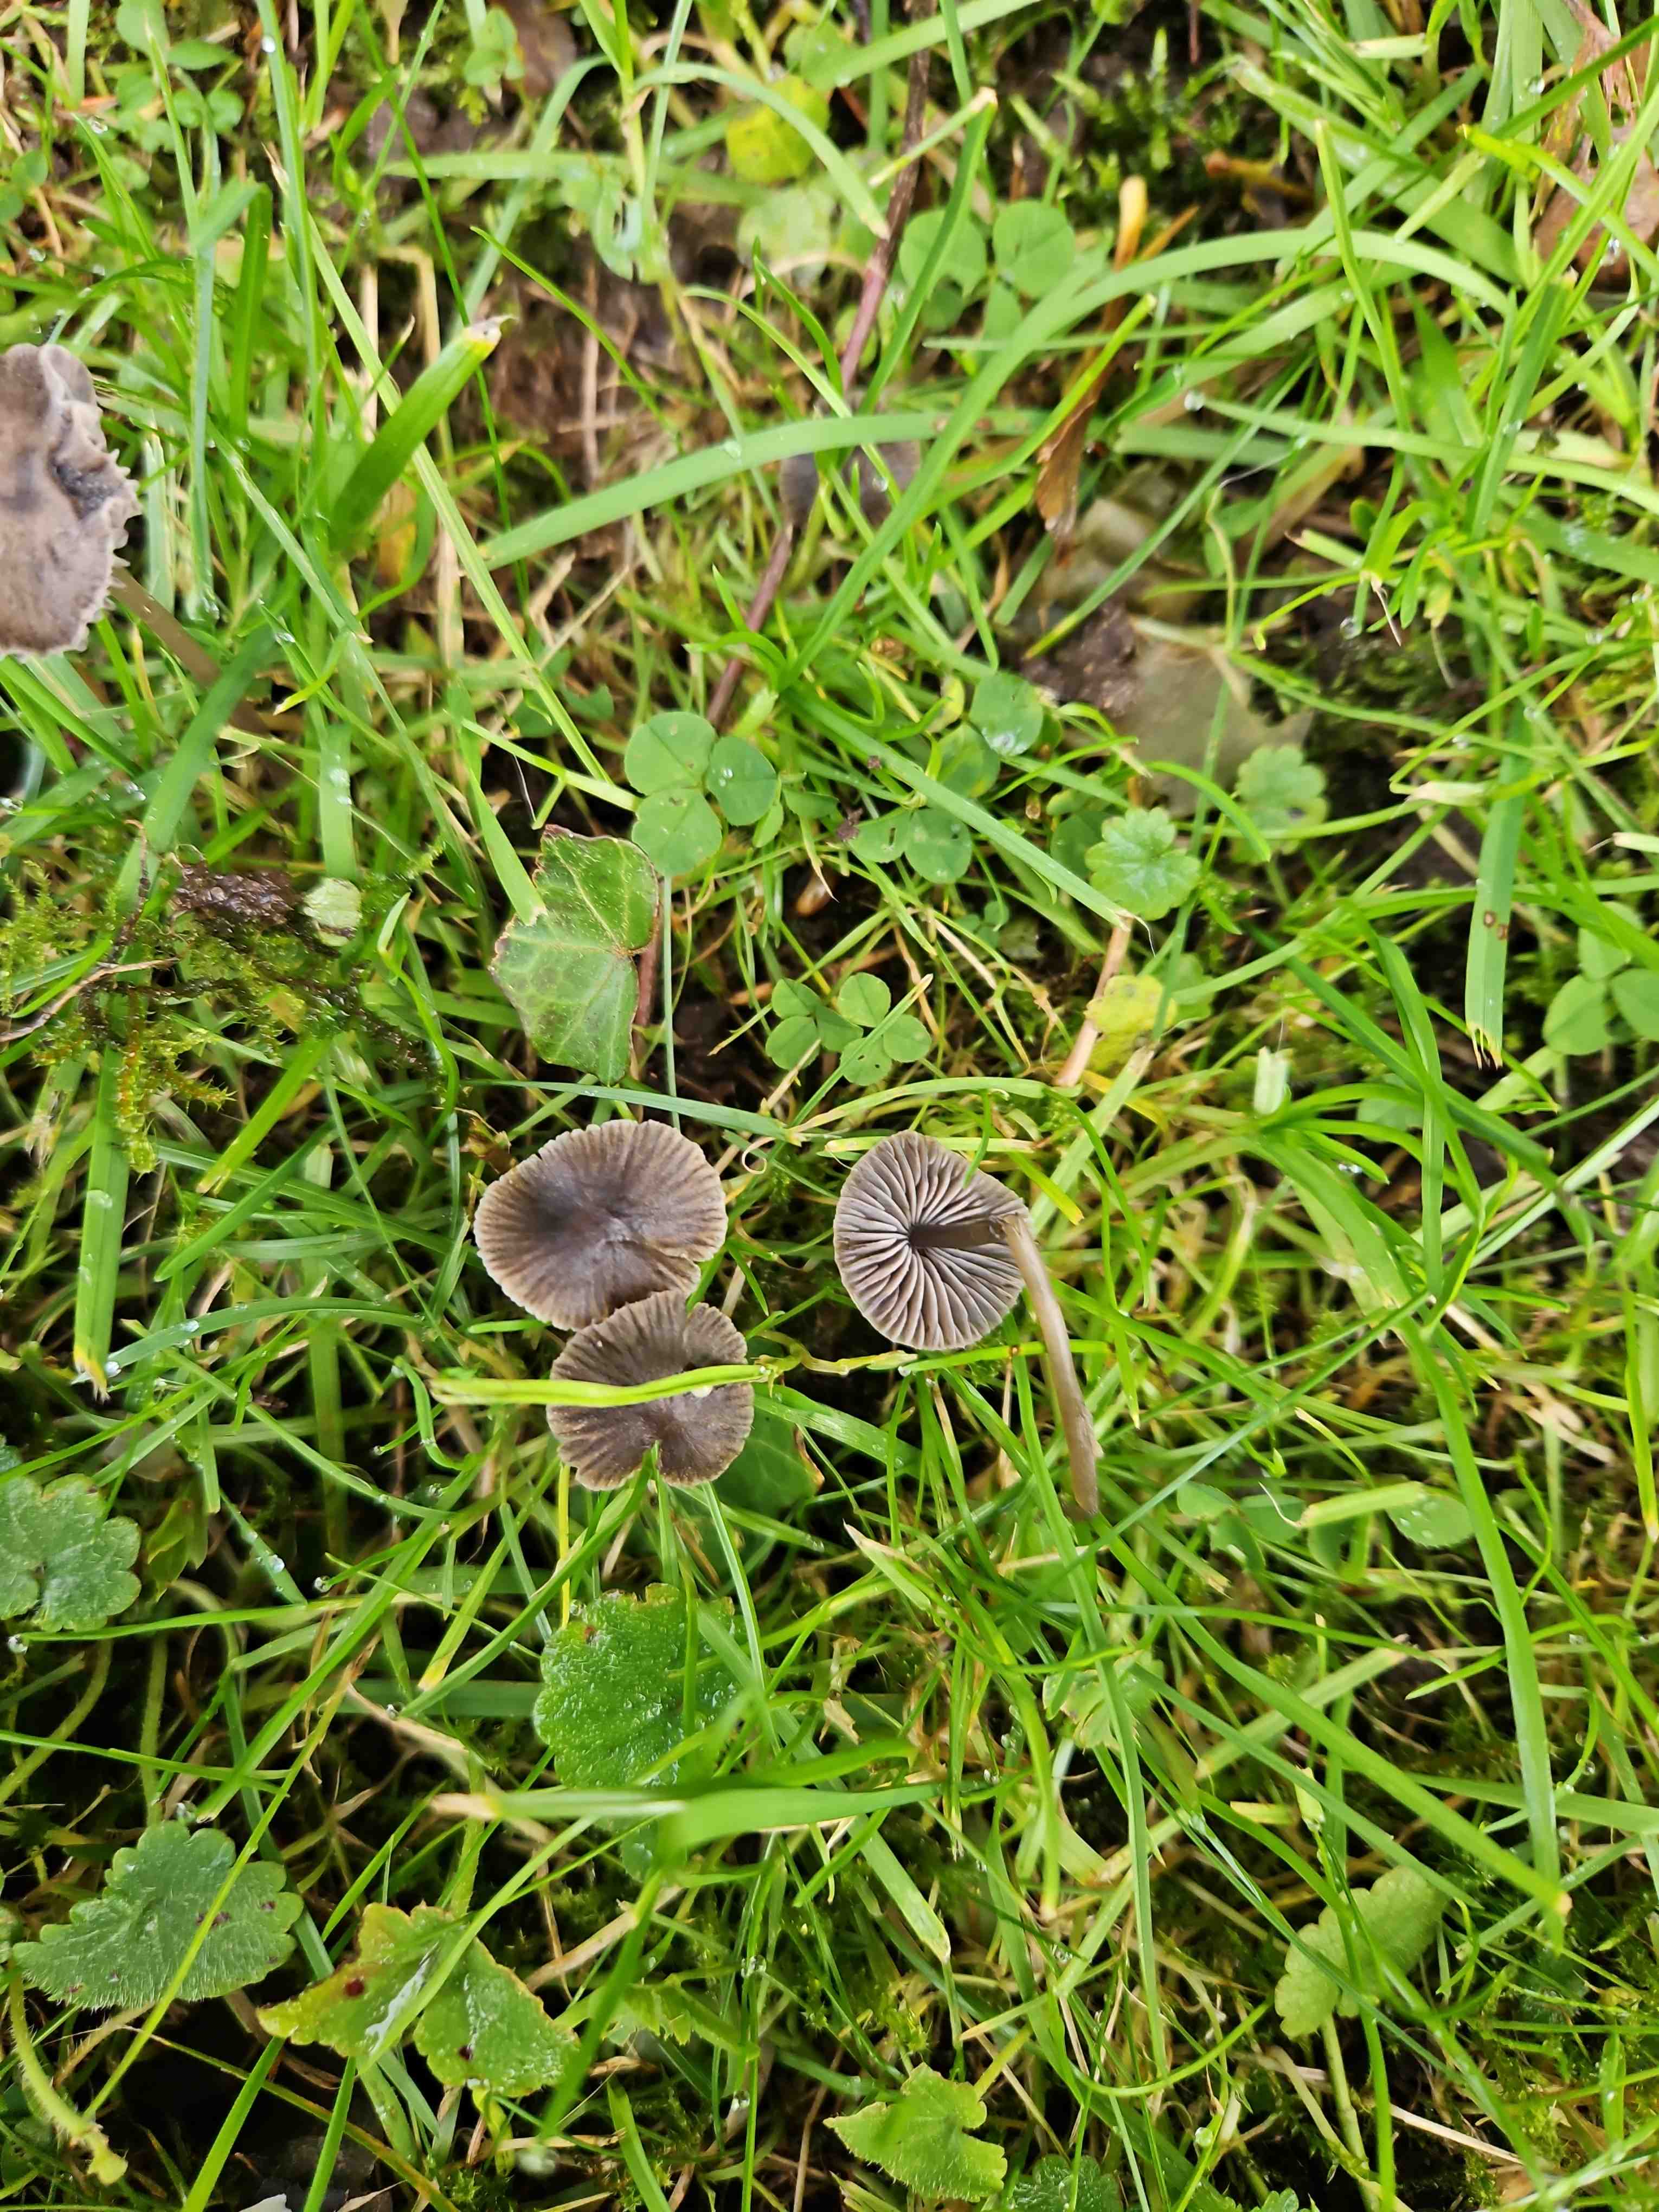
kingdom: Fungi
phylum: Basidiomycota
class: Agaricomycetes
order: Agaricales
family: Mycenaceae
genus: Mycena
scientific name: Mycena aetites
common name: plæne-huesvamp
